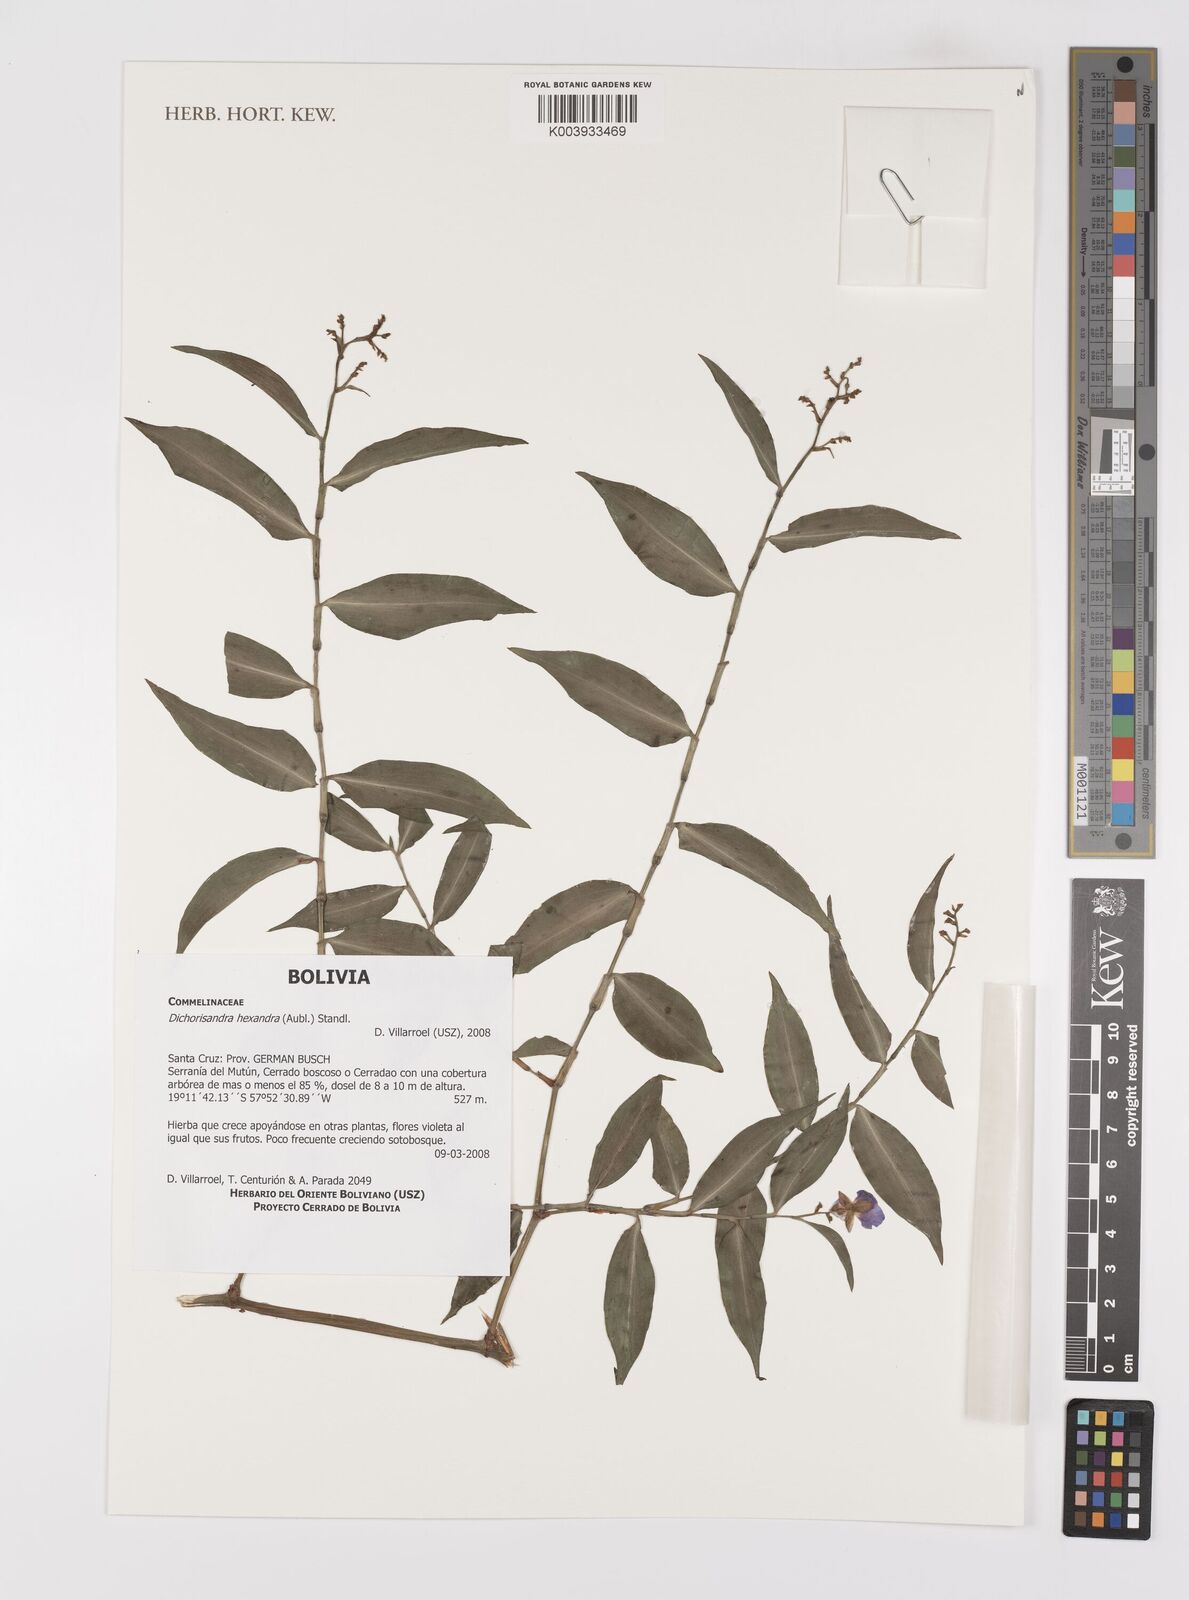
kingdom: Plantae
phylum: Tracheophyta
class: Liliopsida
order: Commelinales
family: Commelinaceae
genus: Dichorisandra
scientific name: Dichorisandra hexandra
